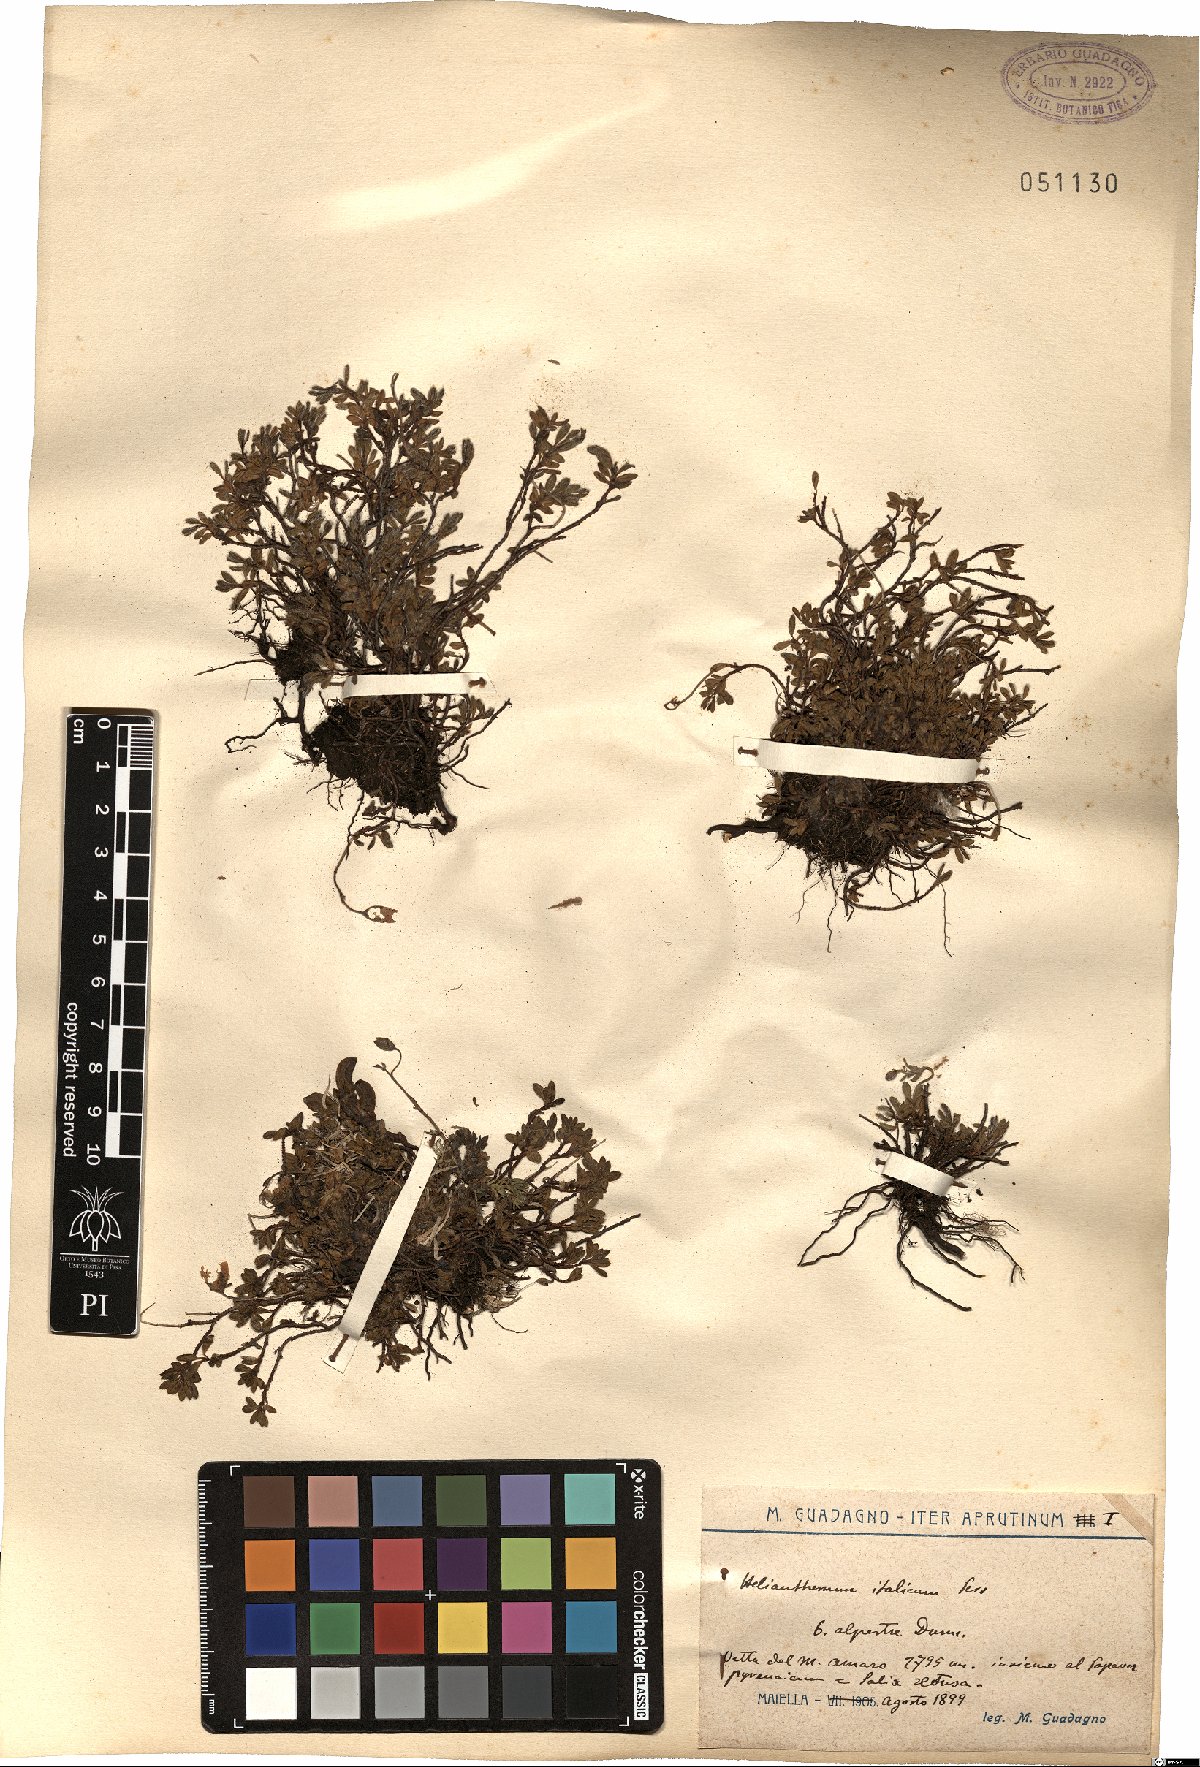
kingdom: Plantae
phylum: Tracheophyta
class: Magnoliopsida
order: Malvales
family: Cistaceae
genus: Helianthemum
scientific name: Helianthemum alpestre
